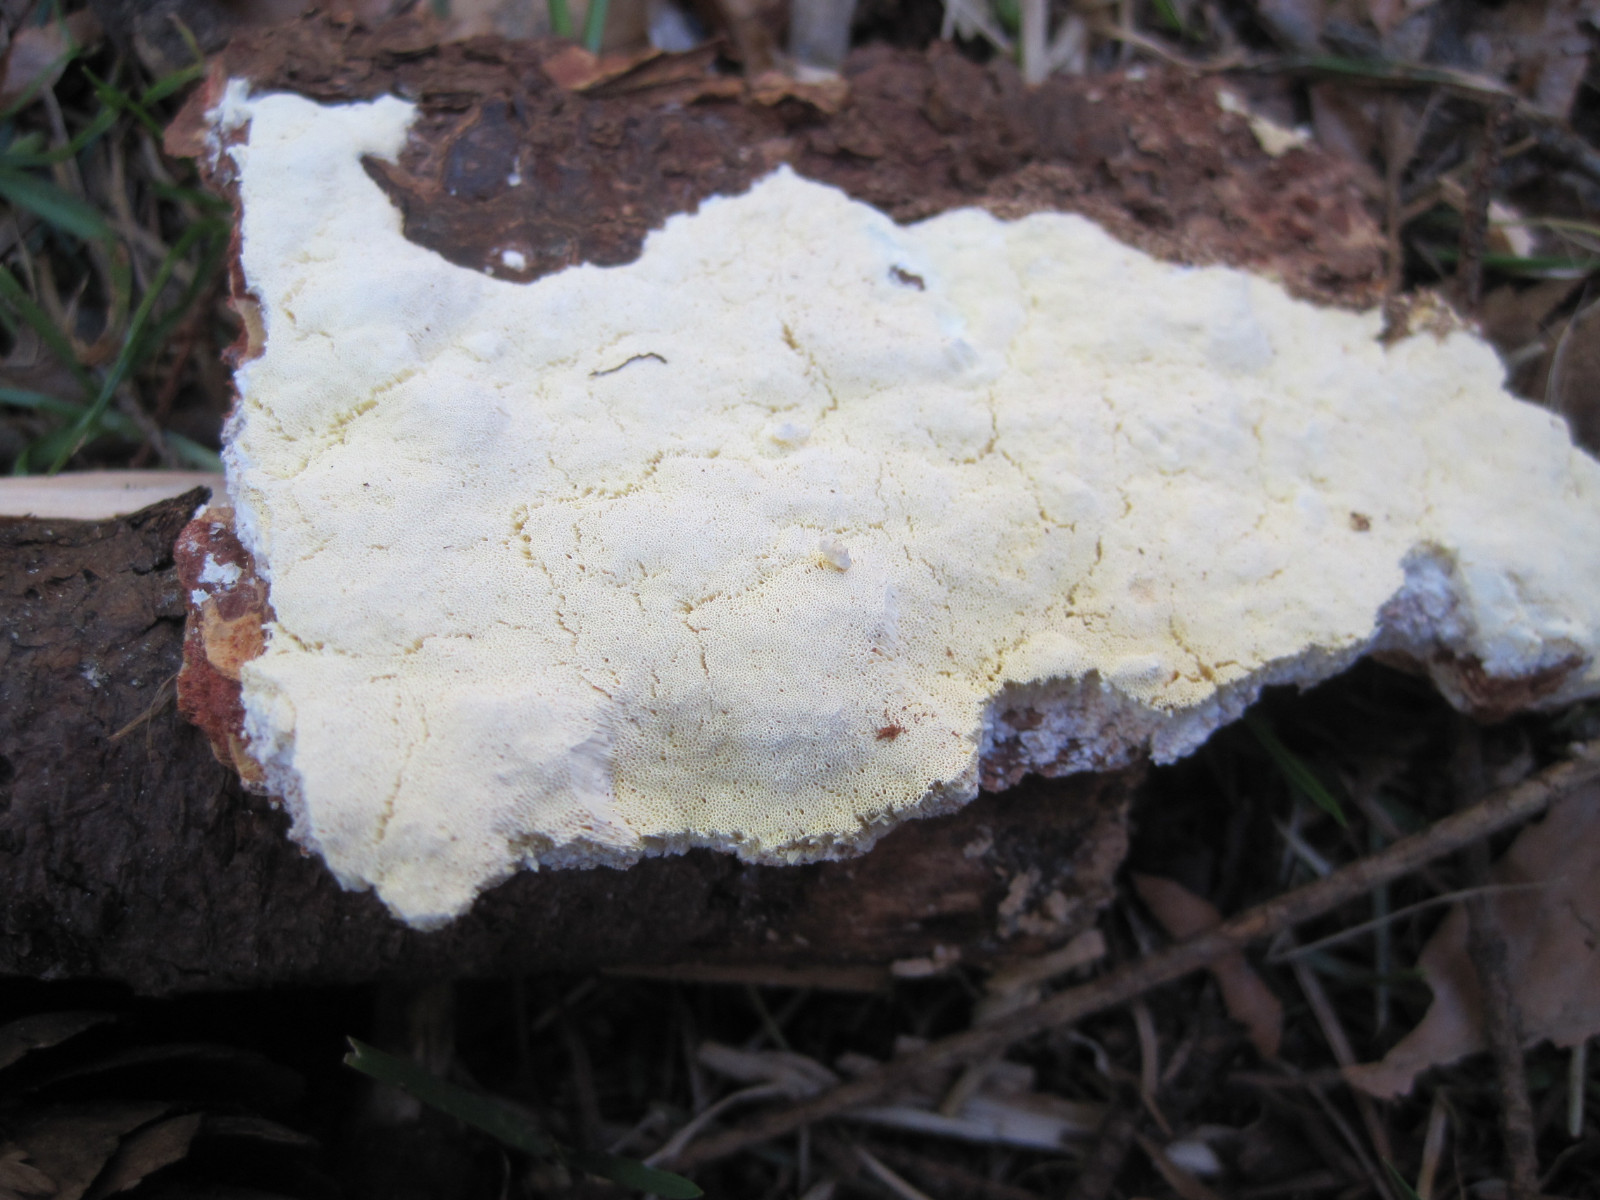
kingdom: Fungi
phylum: Basidiomycota
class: Agaricomycetes
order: Polyporales
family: Fomitopsidaceae
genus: Daedalea
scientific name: Daedalea xantha
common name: gul sejporesvamp
